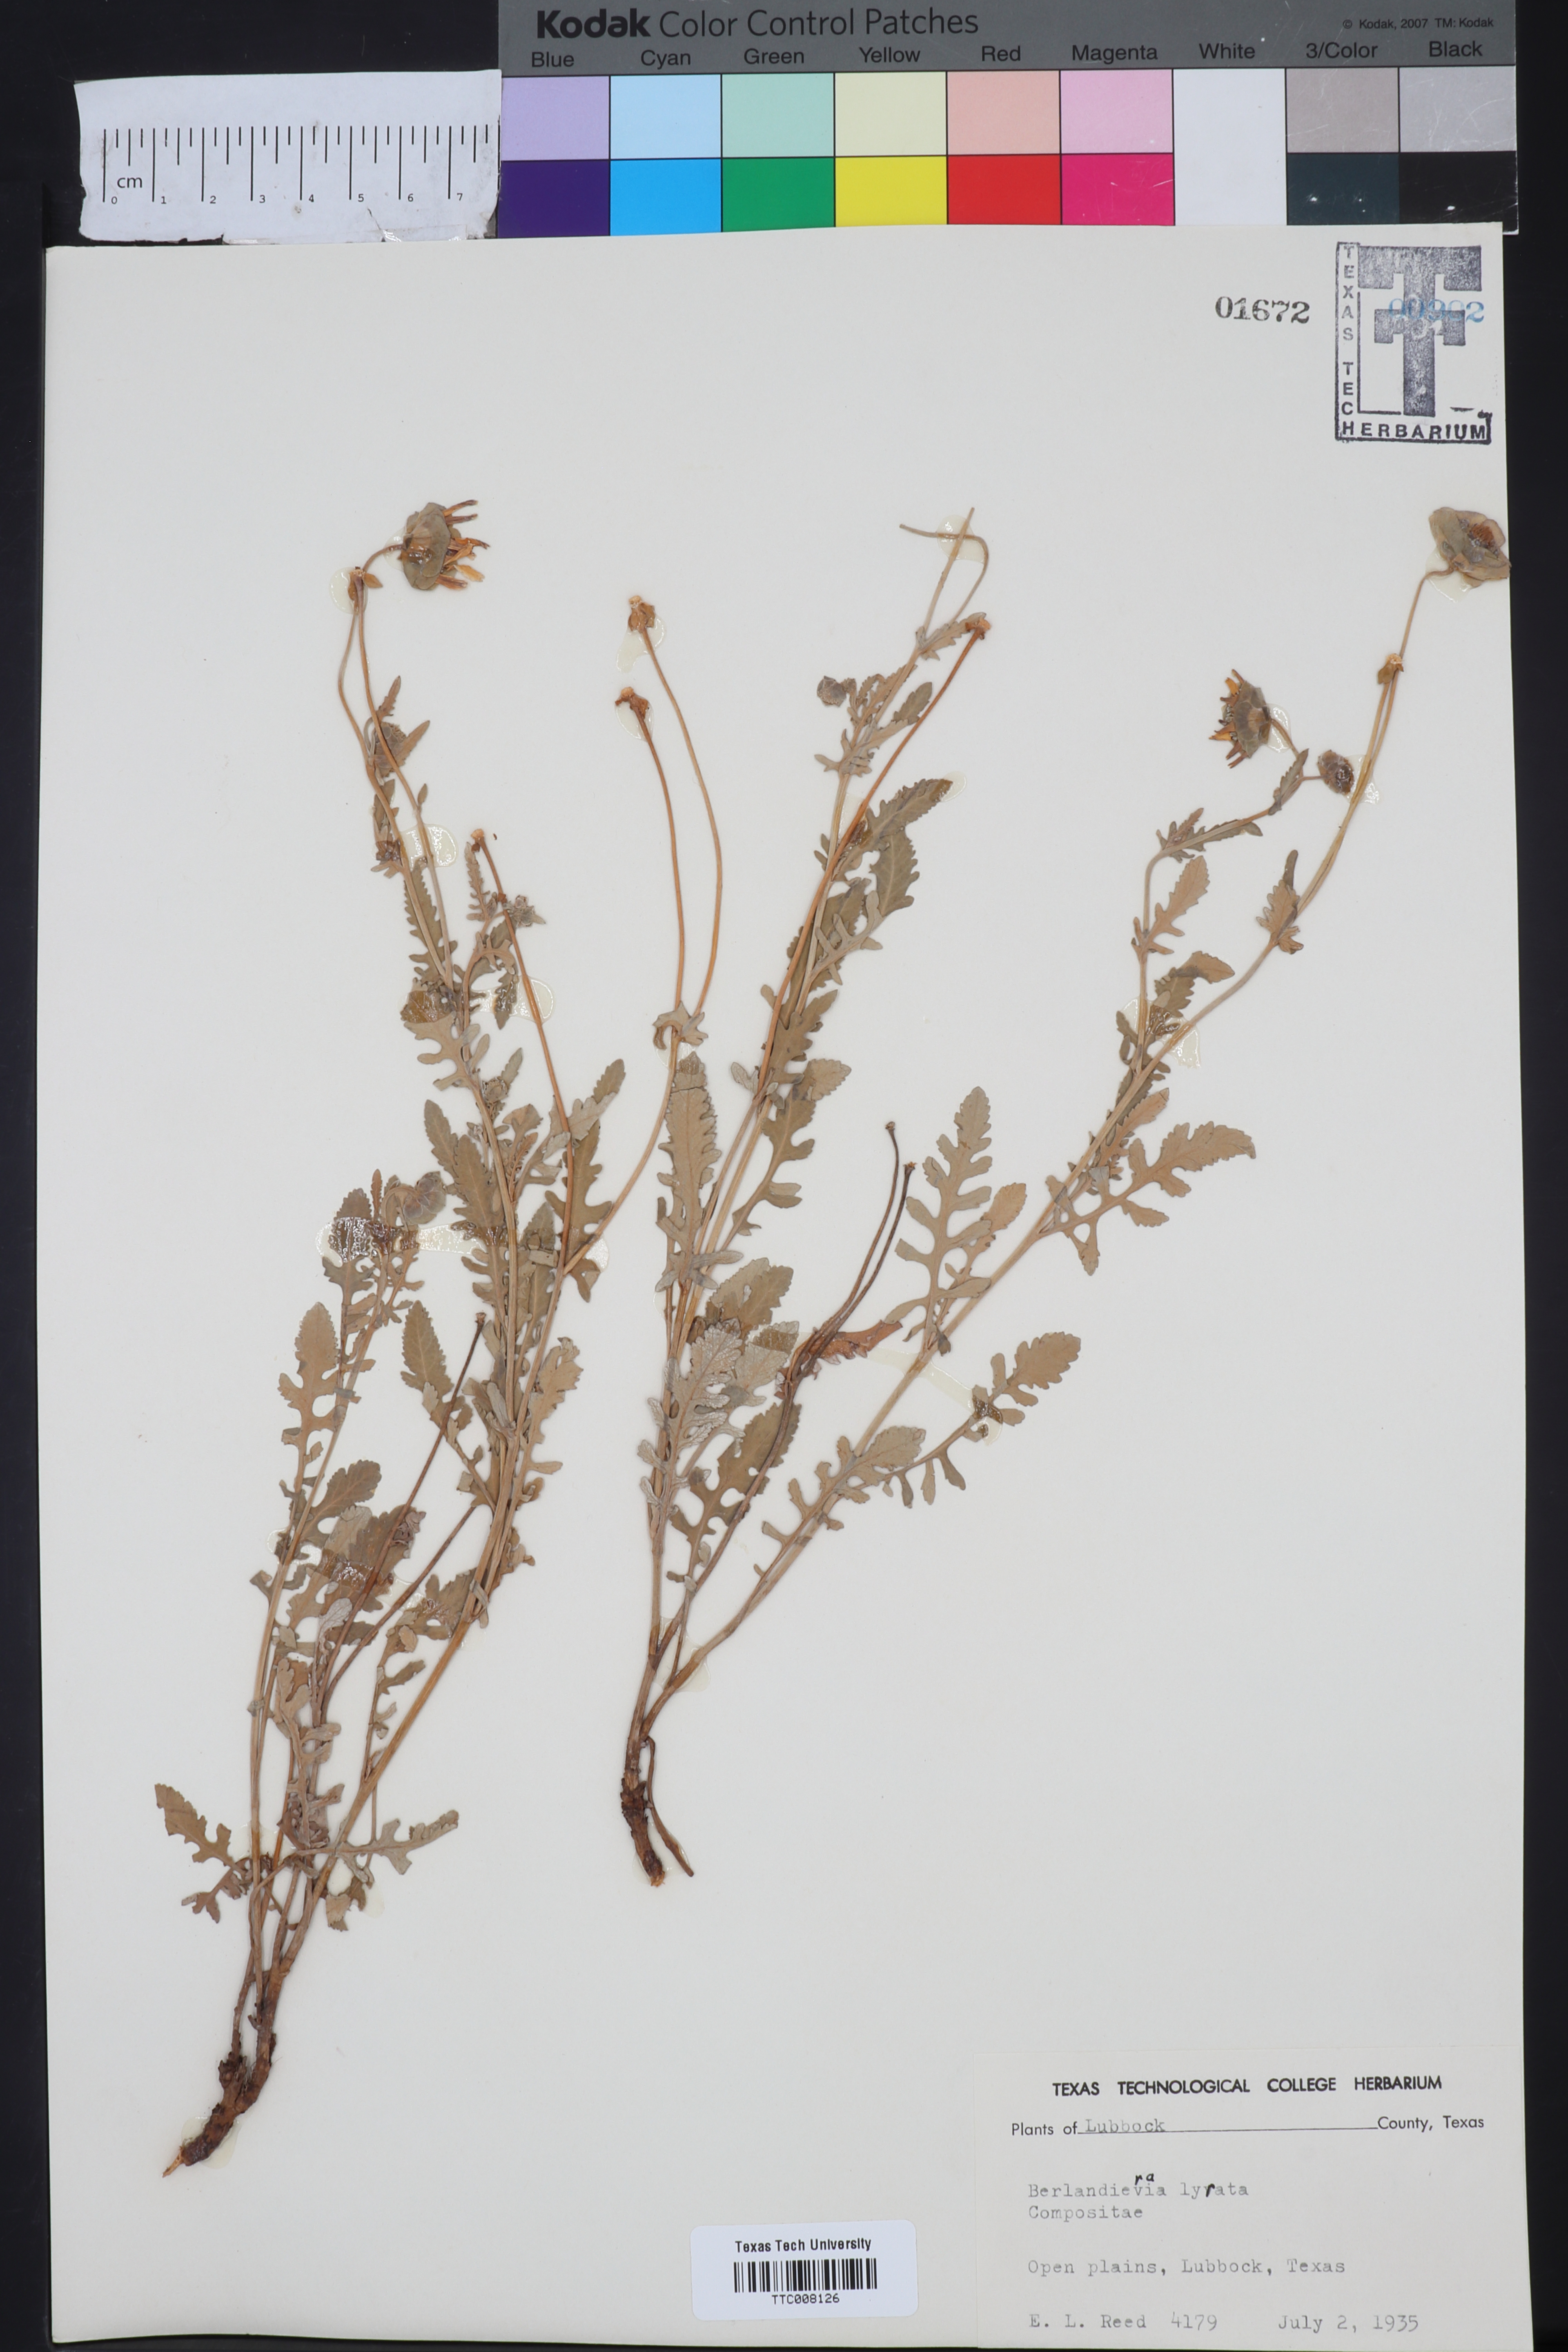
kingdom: Plantae
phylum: Tracheophyta
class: Magnoliopsida
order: Asterales
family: Asteraceae
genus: Berlandiera
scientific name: Berlandiera lyrata
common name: Chocolate-flower
